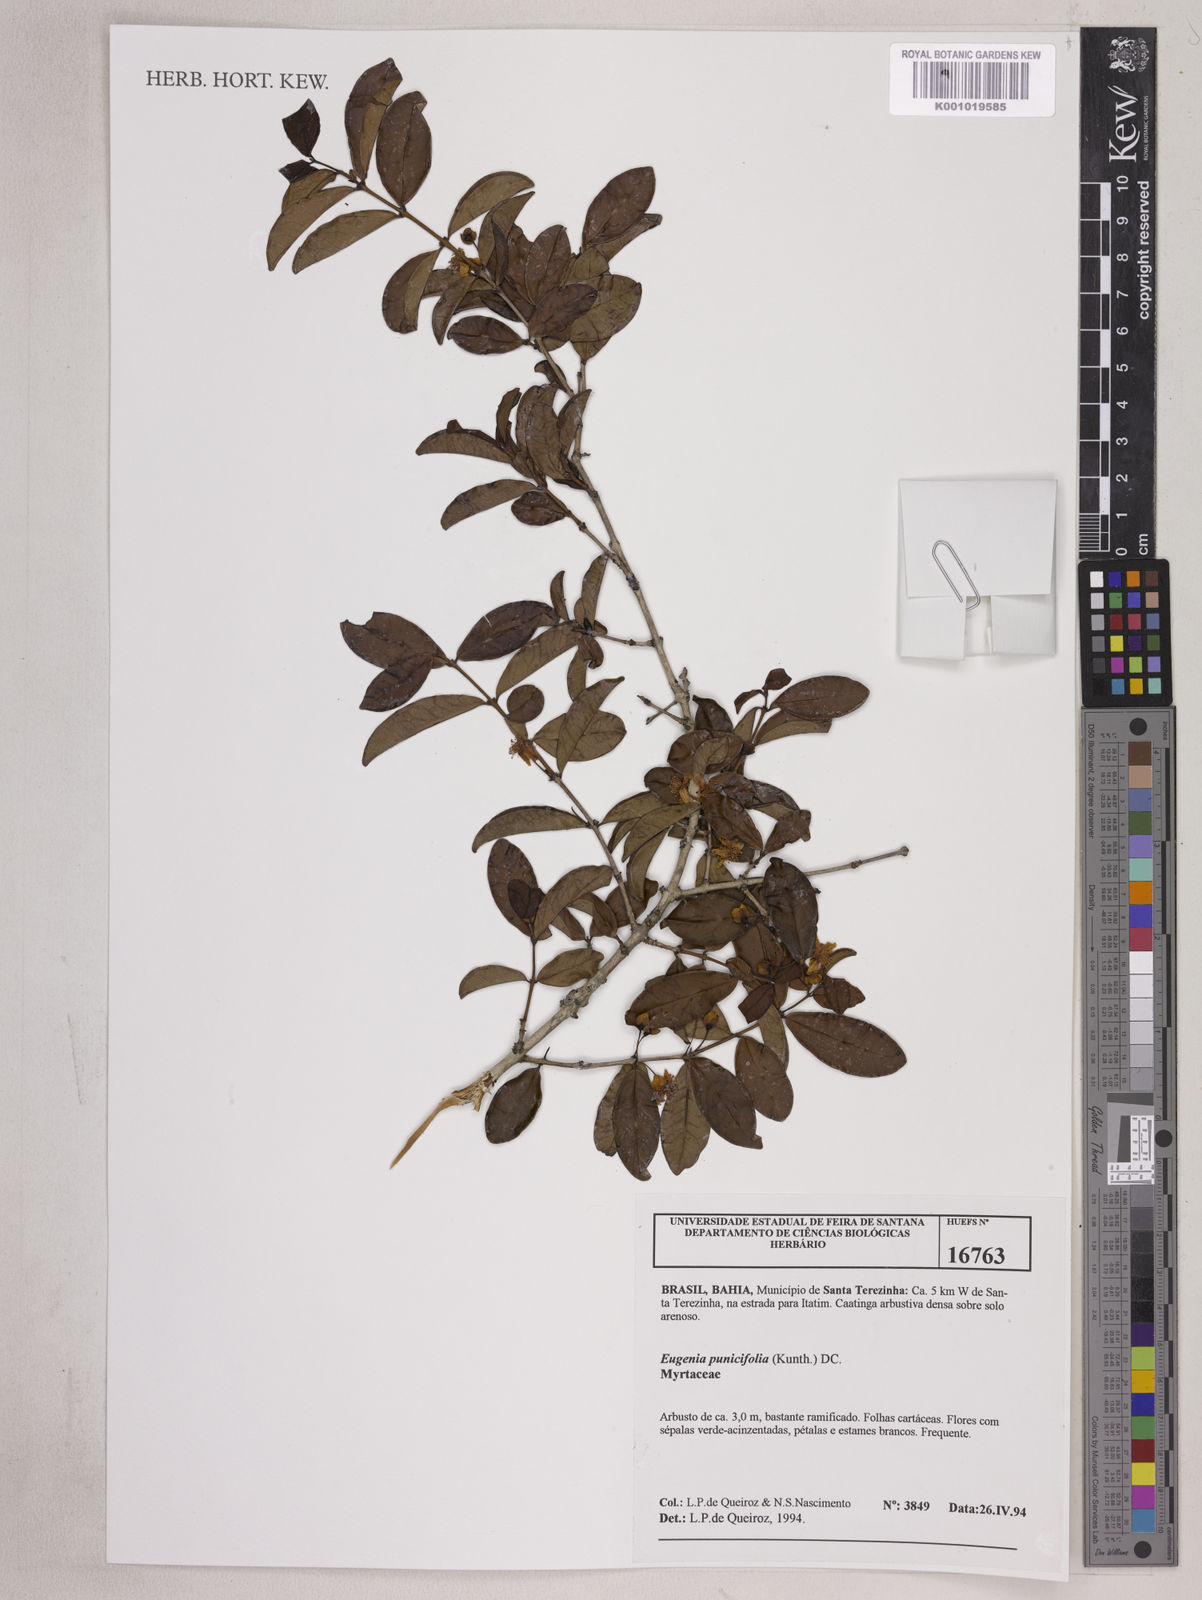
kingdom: Plantae
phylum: Tracheophyta
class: Magnoliopsida
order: Myrtales
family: Myrtaceae
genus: Eugenia
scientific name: Eugenia punicifolia
